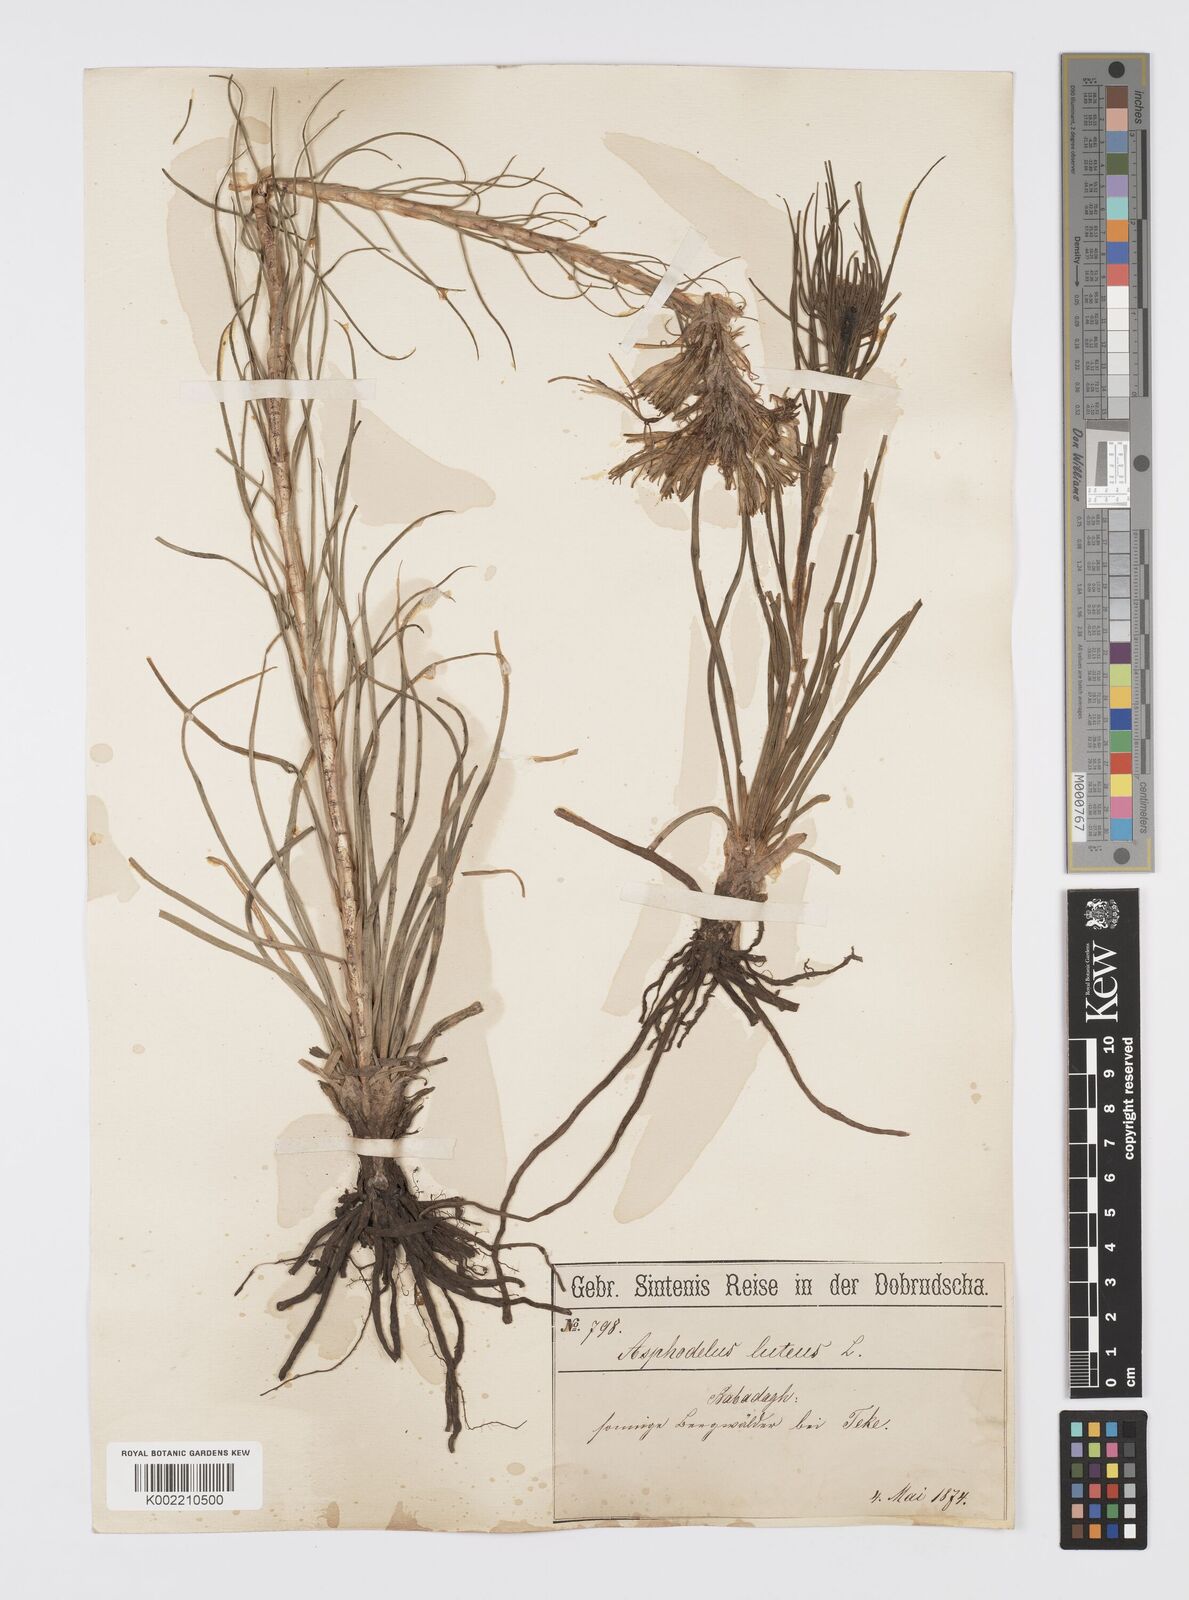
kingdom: Plantae
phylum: Tracheophyta
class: Liliopsida
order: Asparagales
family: Asphodelaceae
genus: Asphodeline
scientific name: Asphodeline lutea
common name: Yellow asphodel
